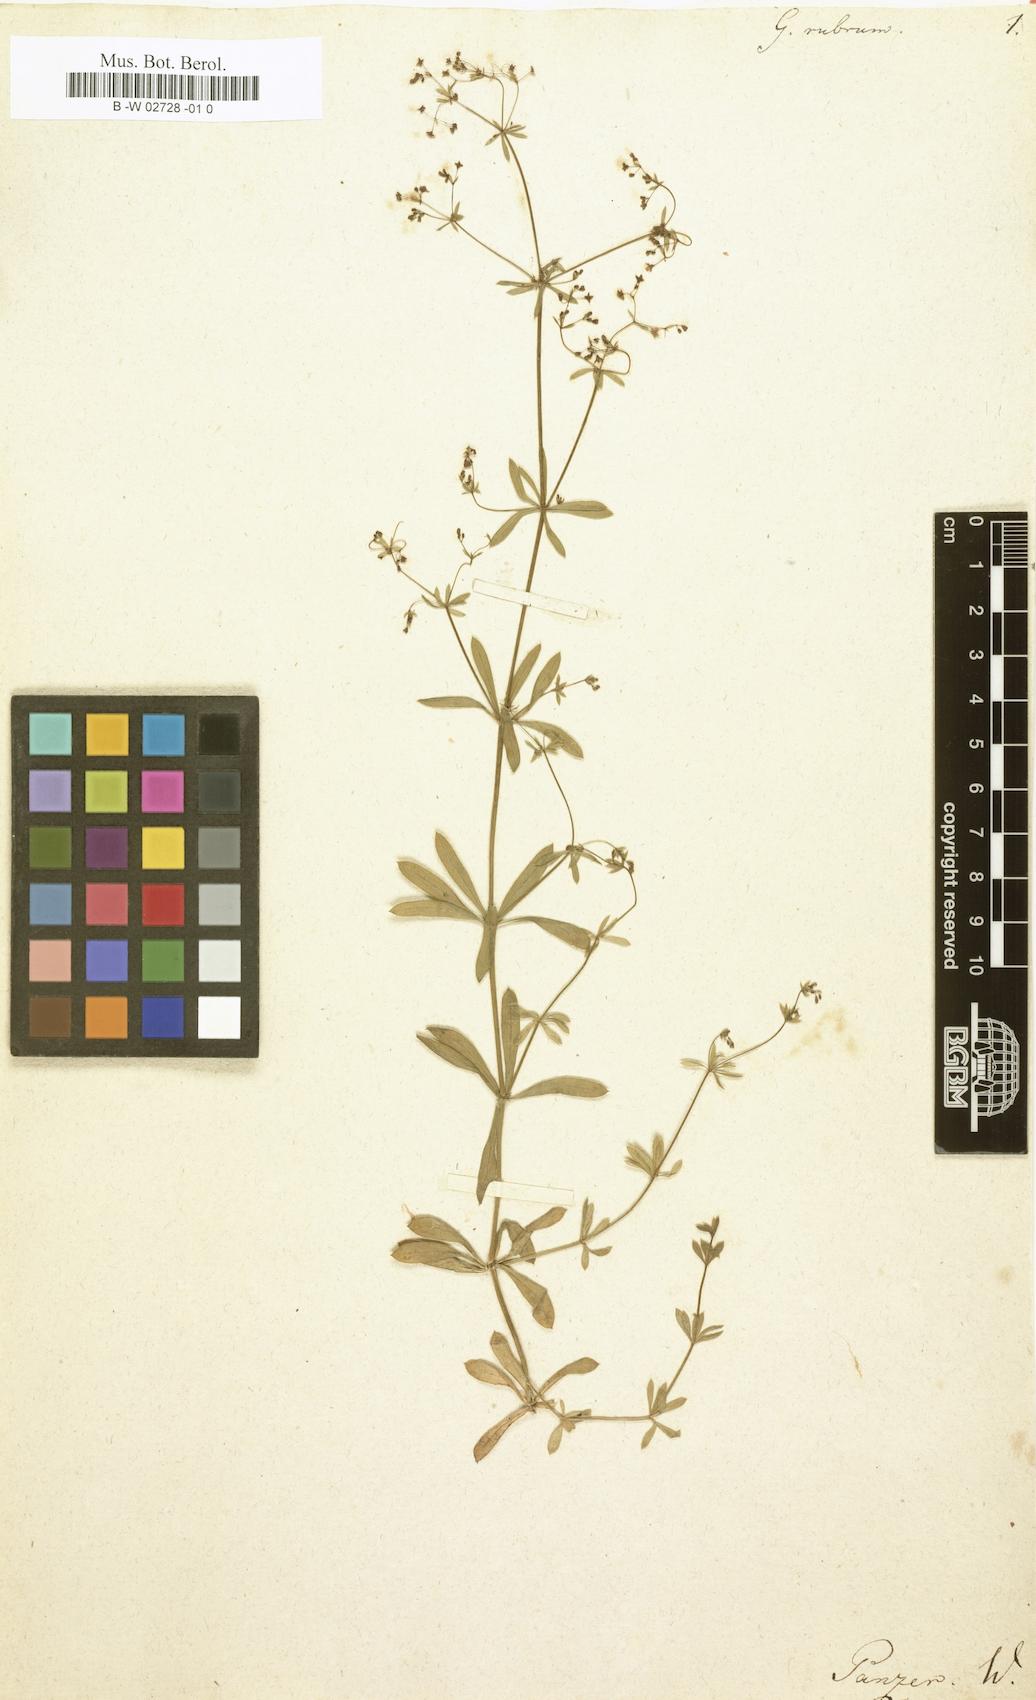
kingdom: Plantae
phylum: Tracheophyta
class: Magnoliopsida
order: Gentianales
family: Rubiaceae
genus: Galium
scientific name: Galium rubrum
